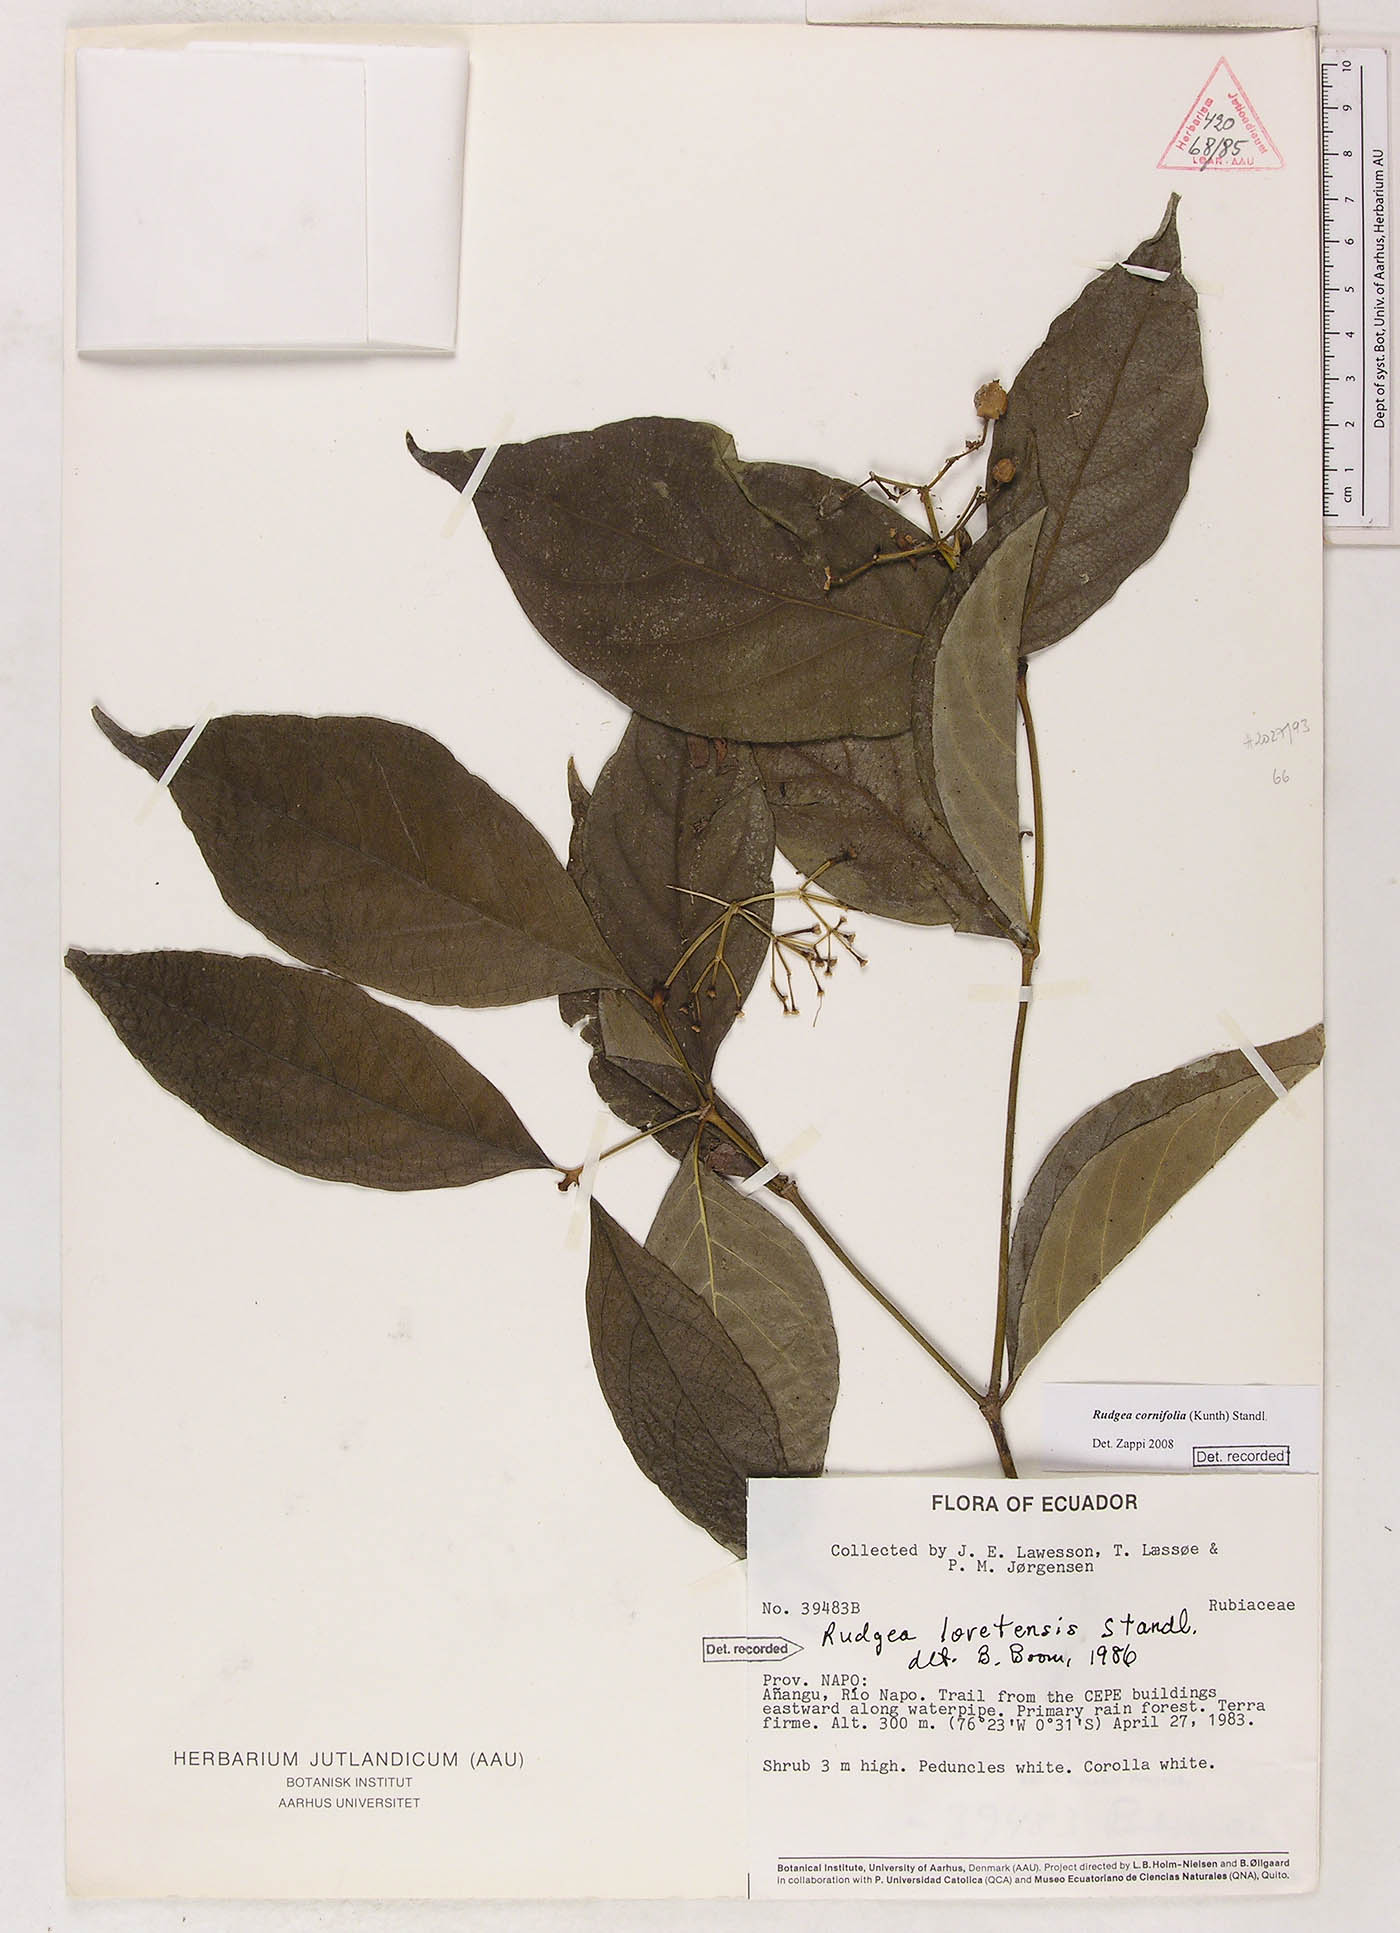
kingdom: Plantae
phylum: Tracheophyta
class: Magnoliopsida
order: Gentianales
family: Rubiaceae
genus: Rudgea
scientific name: Rudgea cornifolia
